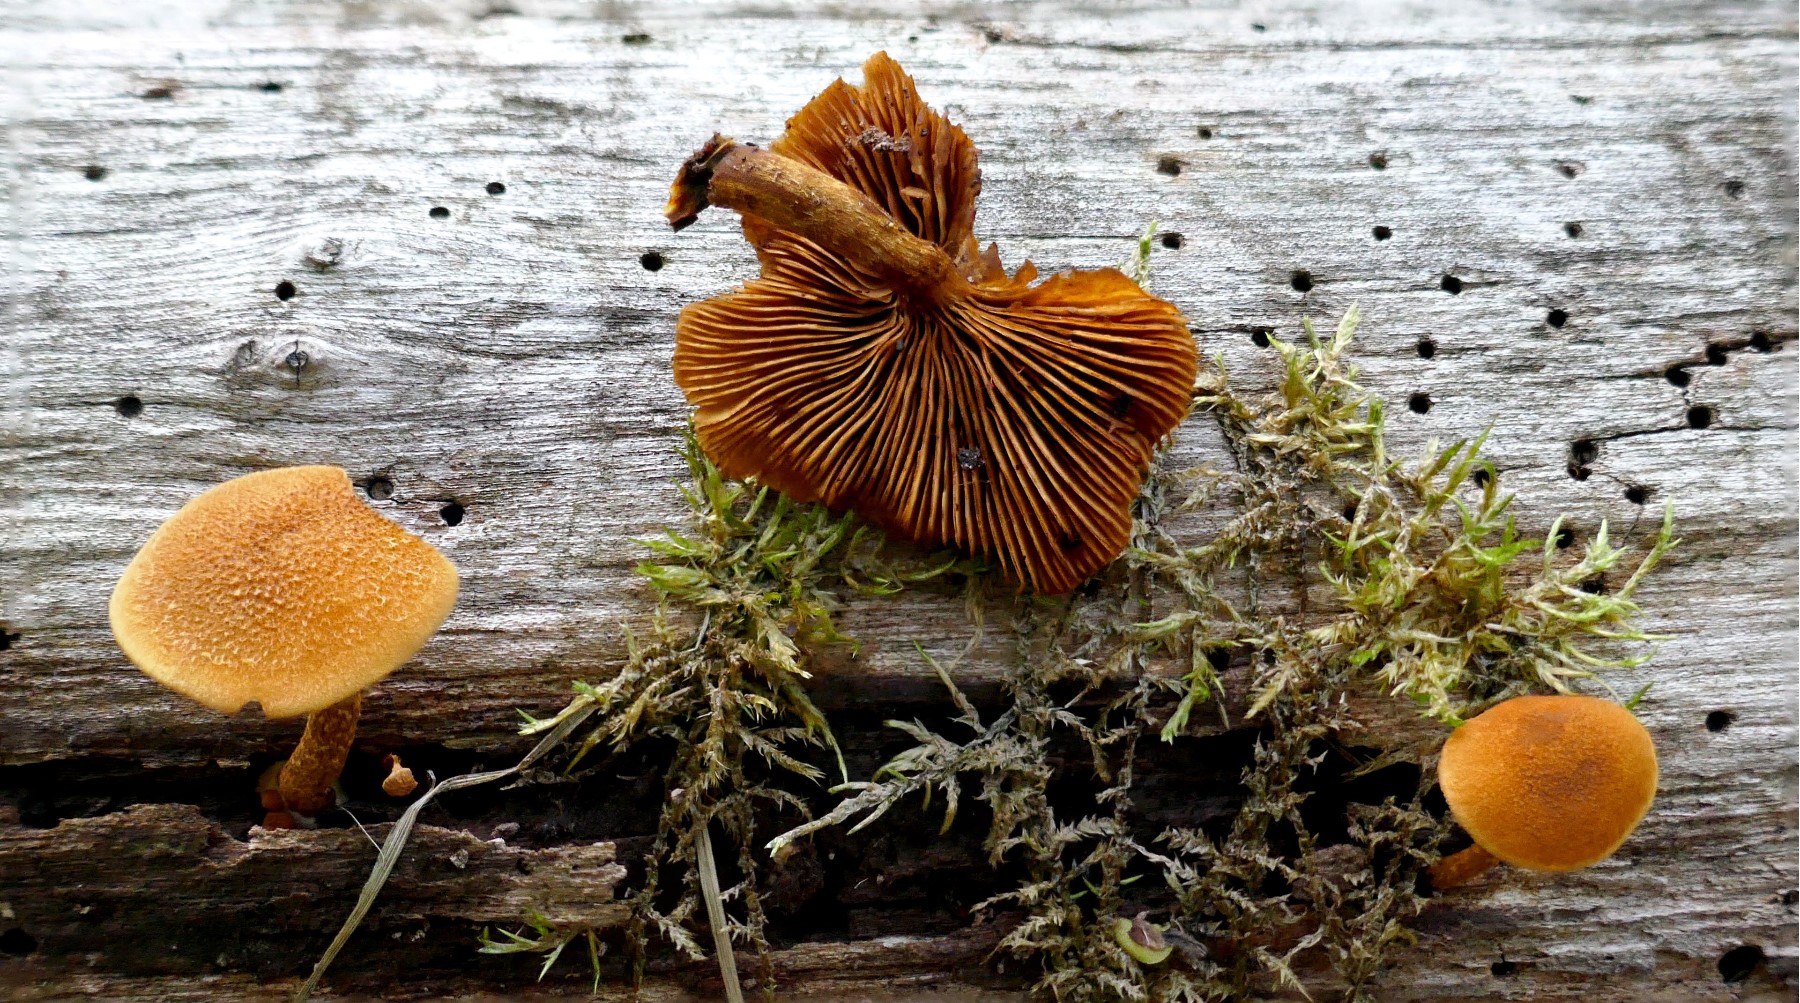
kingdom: Fungi
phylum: Basidiomycota
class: Agaricomycetes
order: Agaricales
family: Tubariaceae
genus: Flammulaster
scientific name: Flammulaster limulatus
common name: gylden grynskælhat
